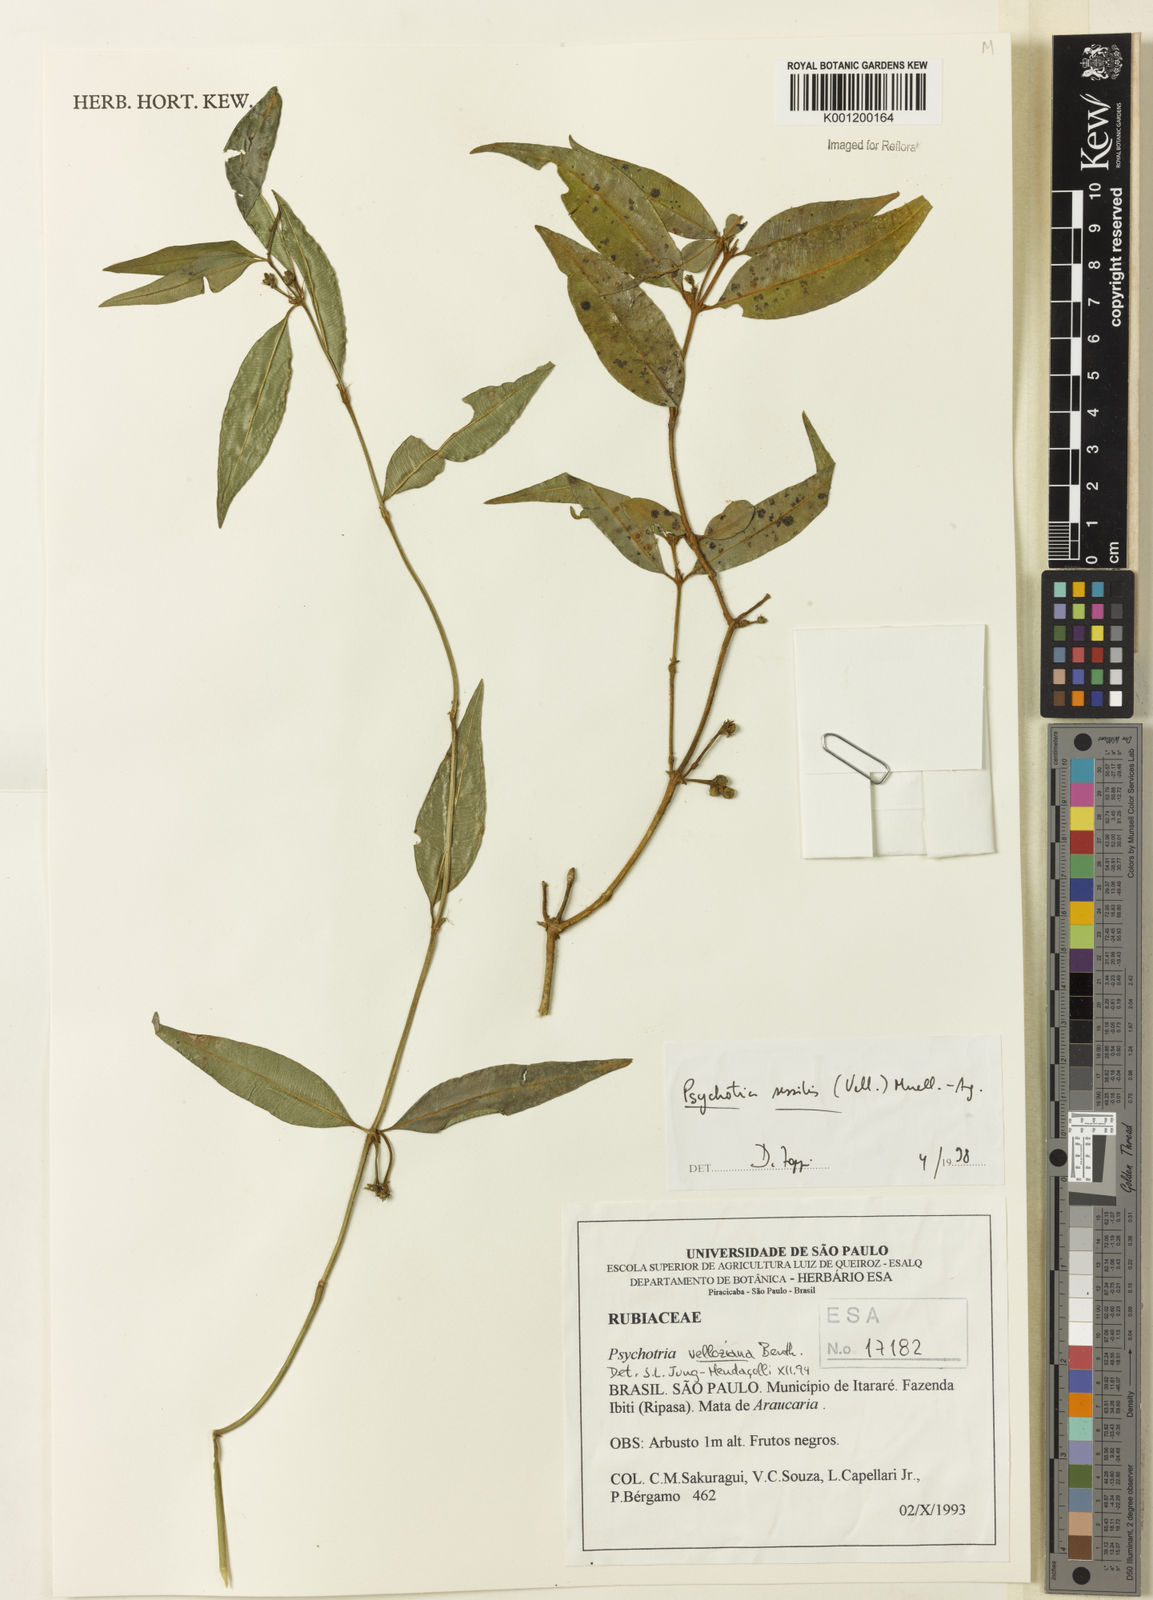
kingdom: Plantae
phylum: Tracheophyta
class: Magnoliopsida
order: Gentianales
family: Rubiaceae
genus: Rudgea
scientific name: Rudgea sessilis
